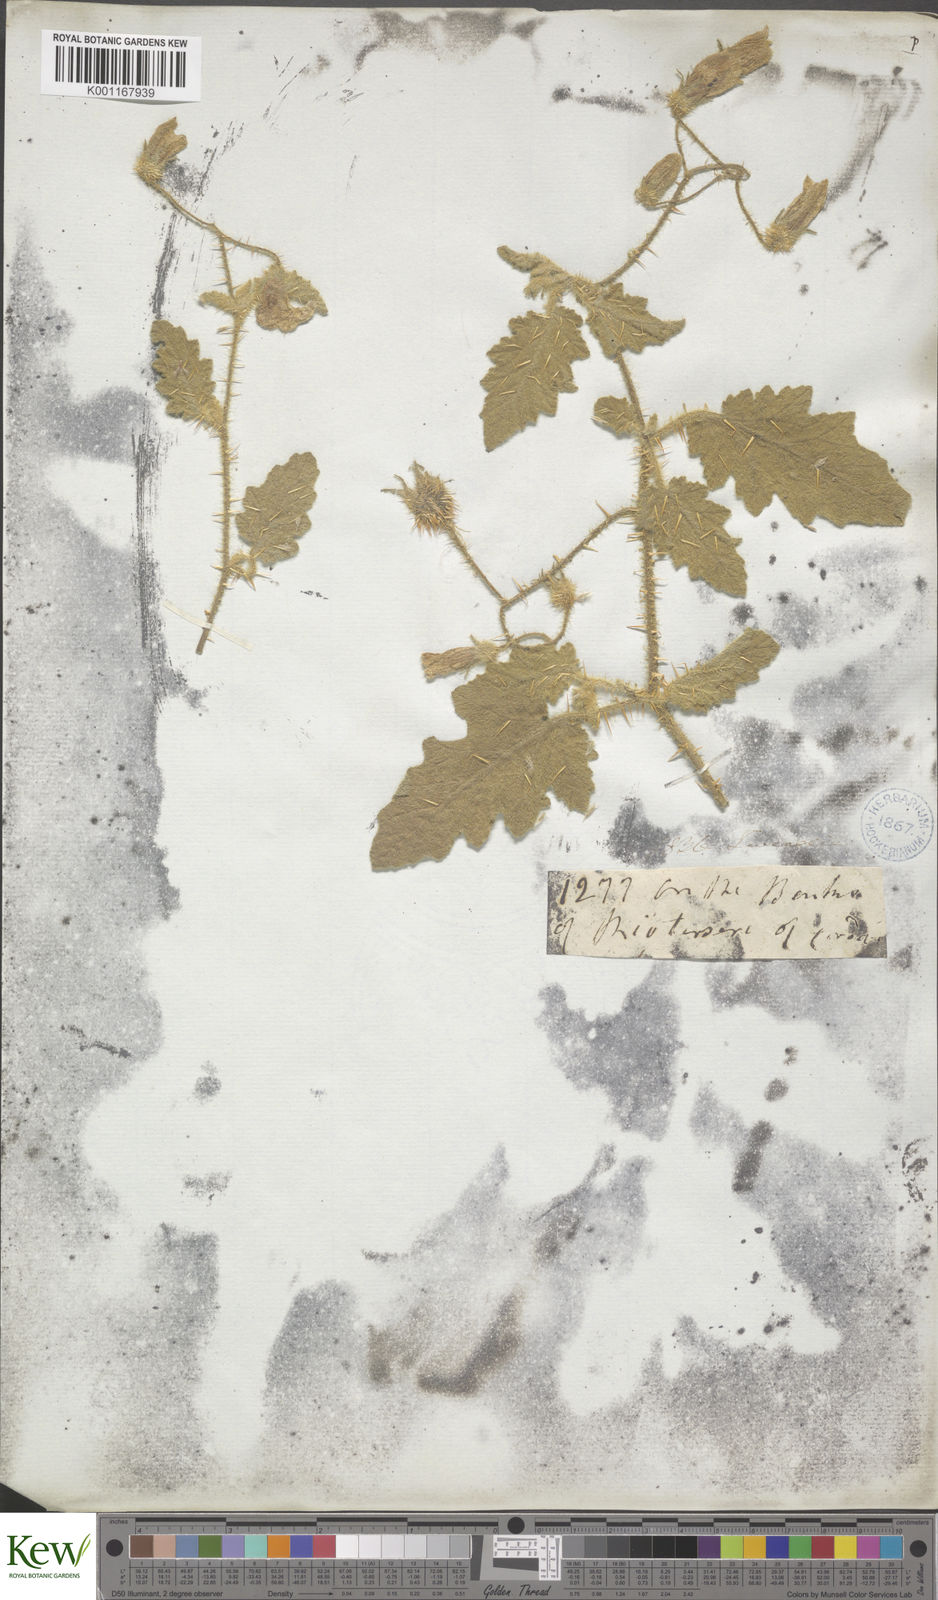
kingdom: Plantae
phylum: Tracheophyta
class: Magnoliopsida
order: Solanales
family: Solanaceae
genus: Solanum
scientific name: Solanum
